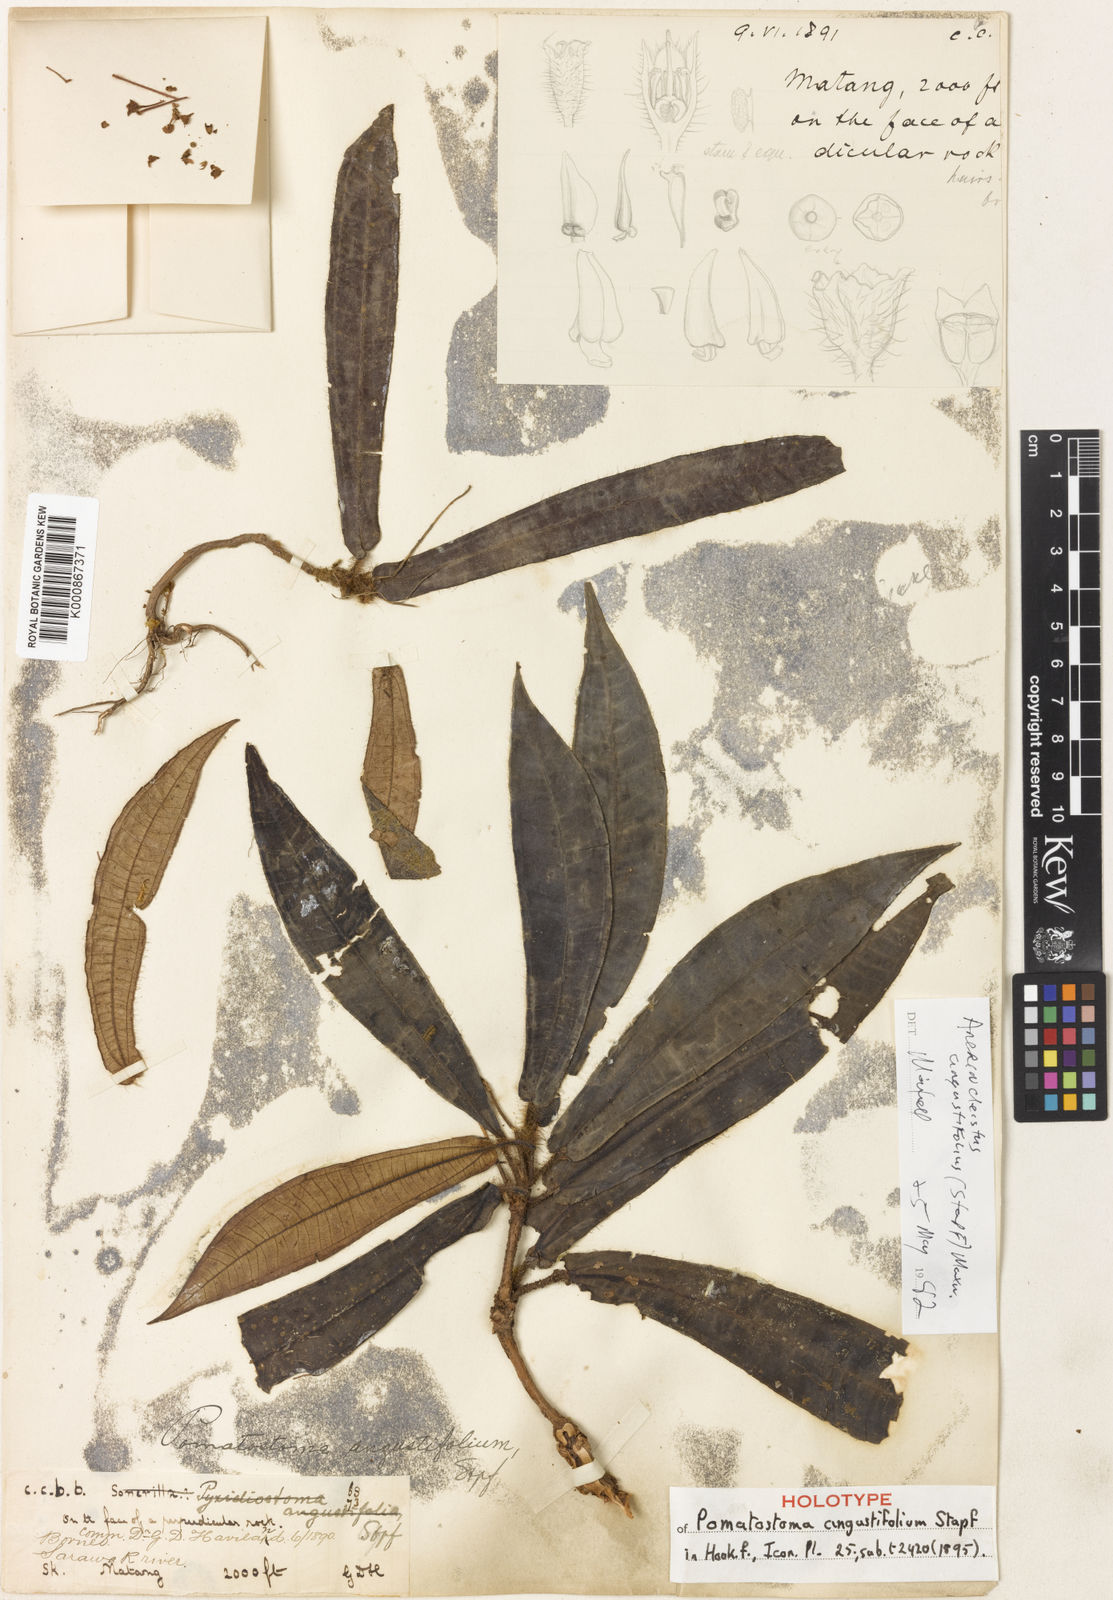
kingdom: Plantae
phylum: Tracheophyta
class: Magnoliopsida
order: Myrtales
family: Melastomataceae
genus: Anerincleistus
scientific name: Anerincleistus angustifolius
